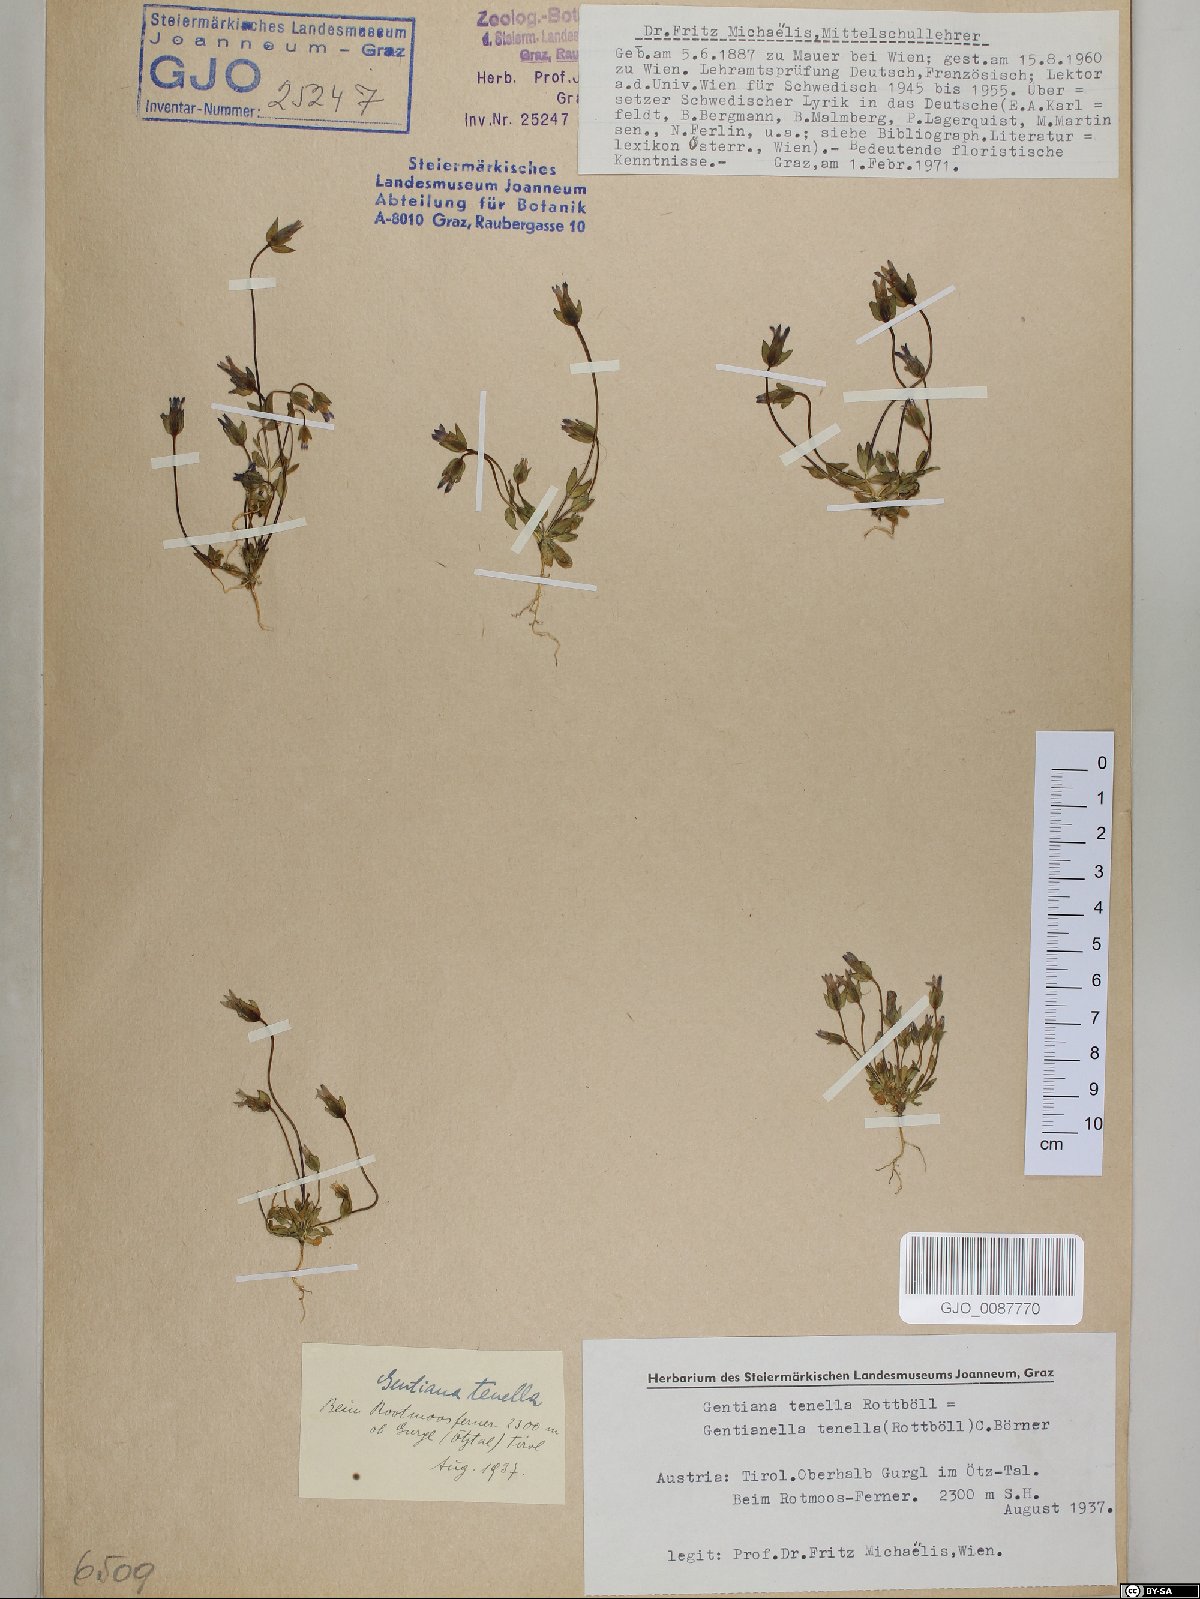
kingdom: Plantae
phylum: Tracheophyta
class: Magnoliopsida
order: Gentianales
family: Gentianaceae
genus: Comastoma
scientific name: Comastoma tenellum
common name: Dane's dwarf gentian
